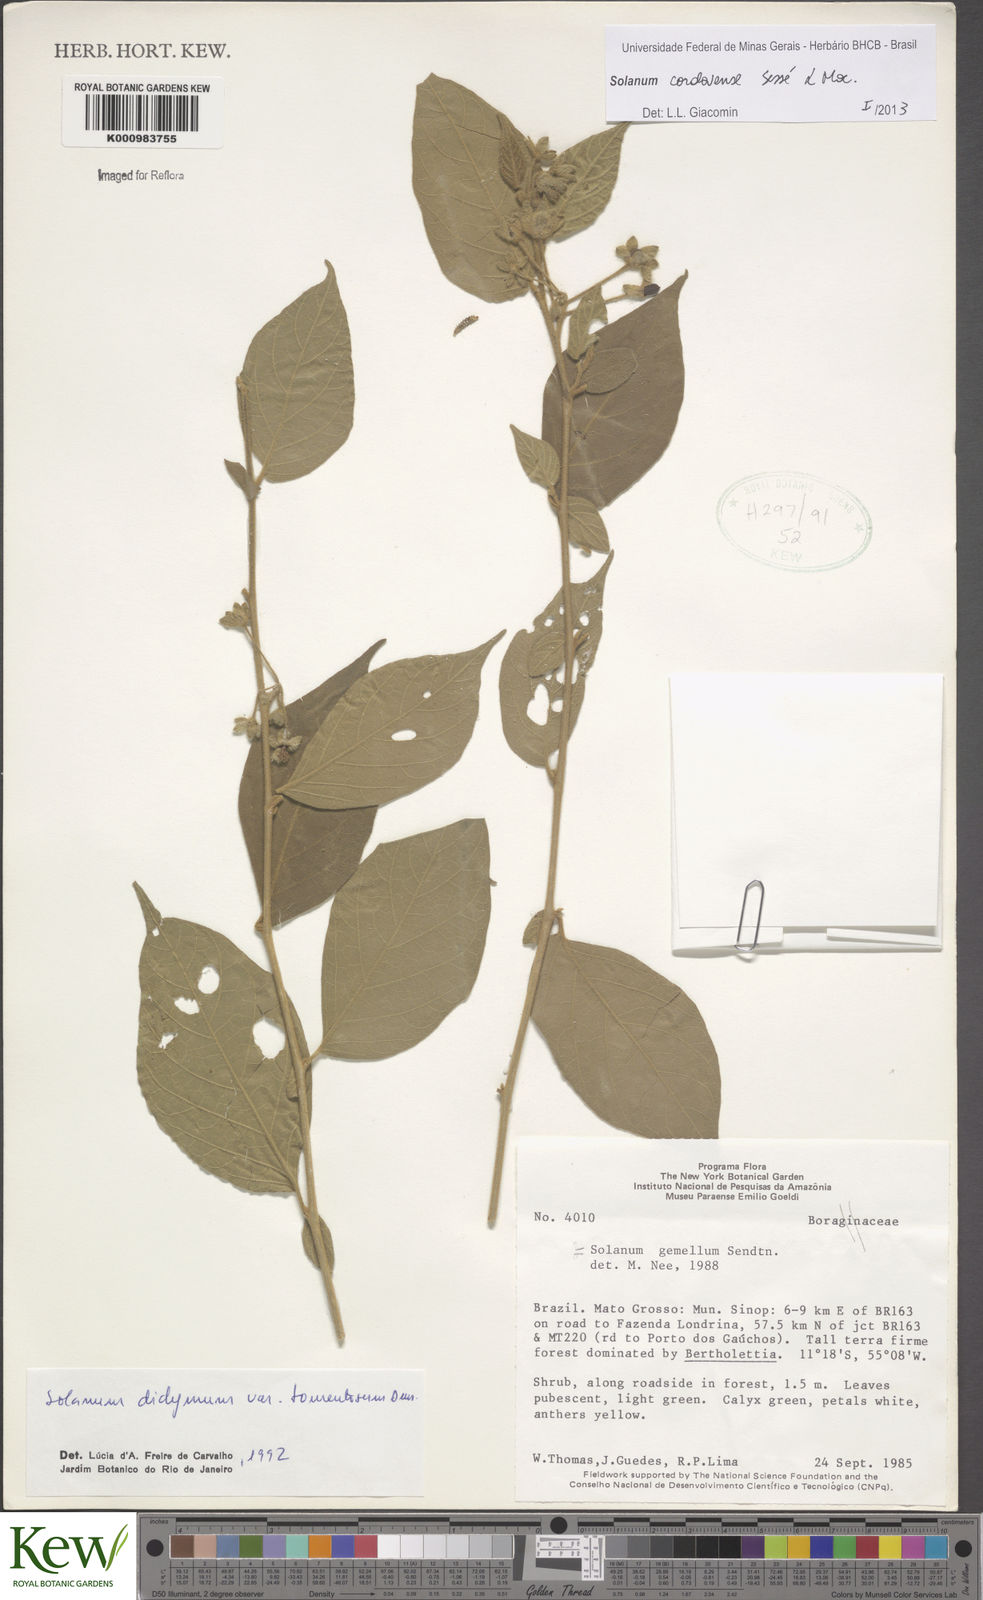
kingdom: Plantae
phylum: Tracheophyta
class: Magnoliopsida
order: Solanales
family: Solanaceae
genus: Solanum
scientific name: Solanum
